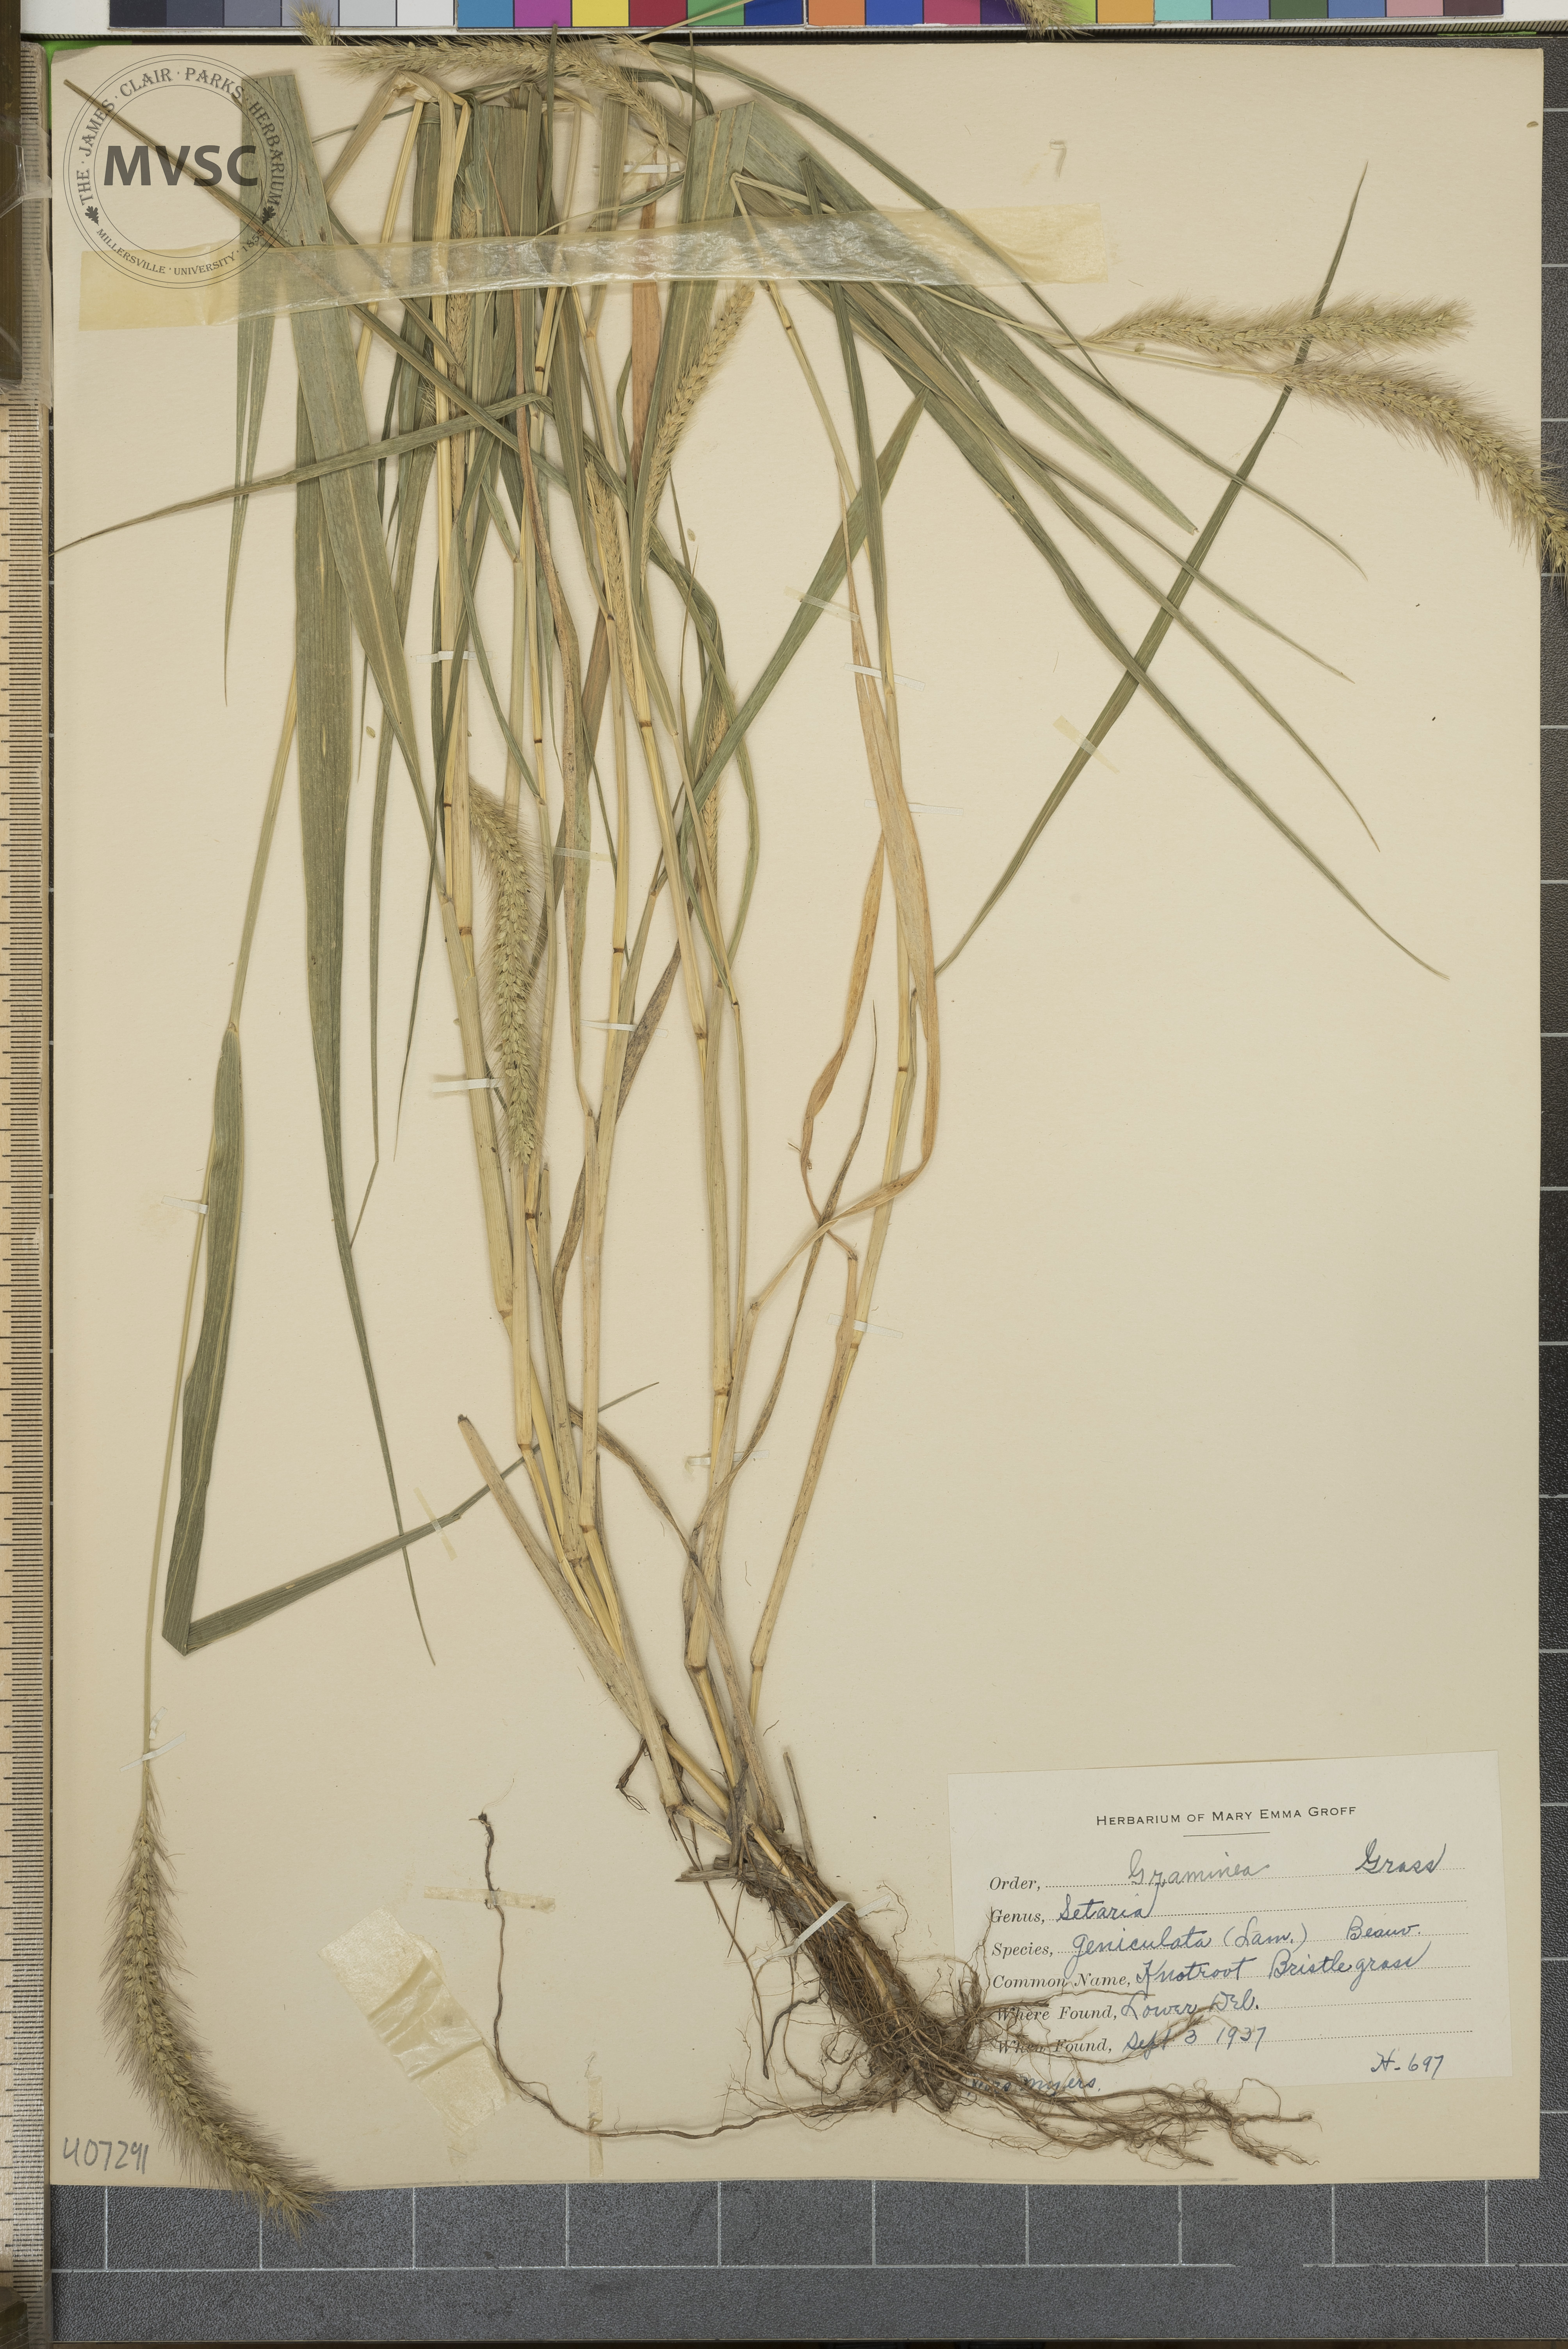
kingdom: Plantae
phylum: Tracheophyta
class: Liliopsida
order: Poales
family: Poaceae
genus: Setaria
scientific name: Setaria parviflora
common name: Knotroot Bristle grass
